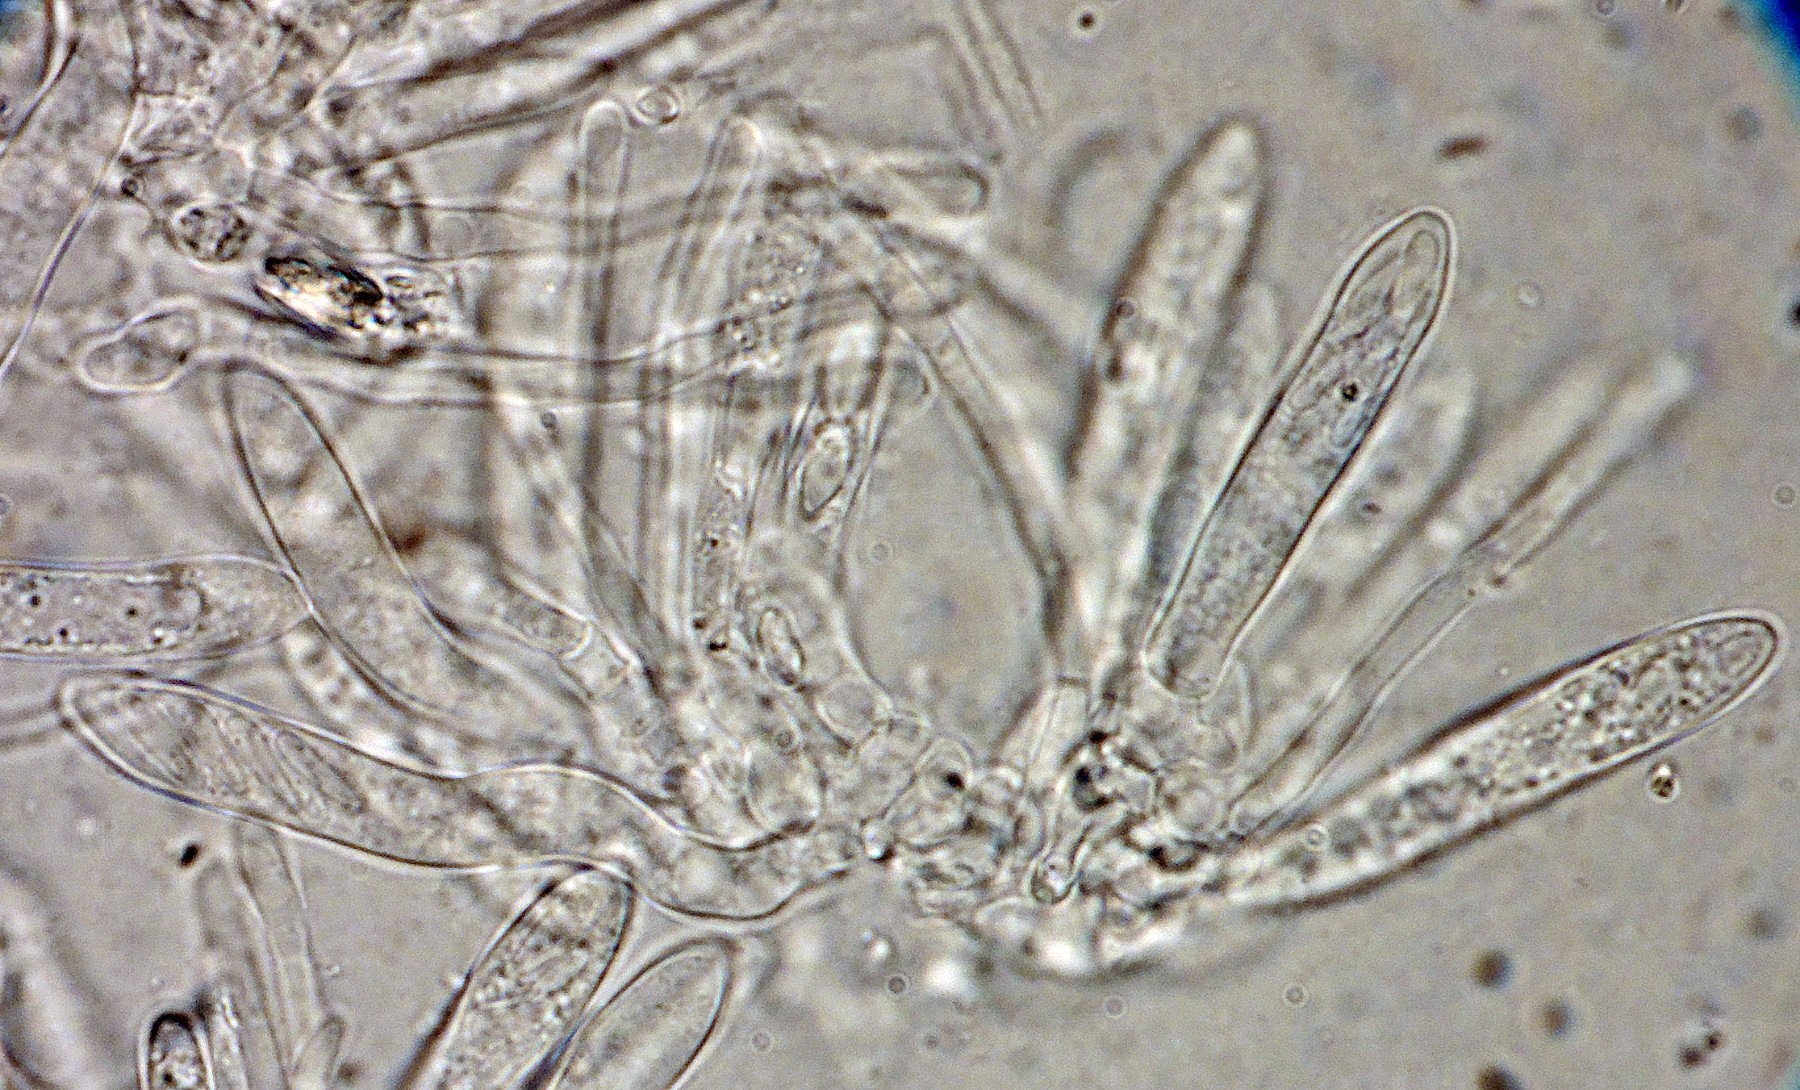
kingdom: Fungi
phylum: Ascomycota
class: Leotiomycetes
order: Helotiales
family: Ploettnerulaceae
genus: Pyrenopeziza
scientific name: Pyrenopeziza fuckelii
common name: pileblads-kerneskive
